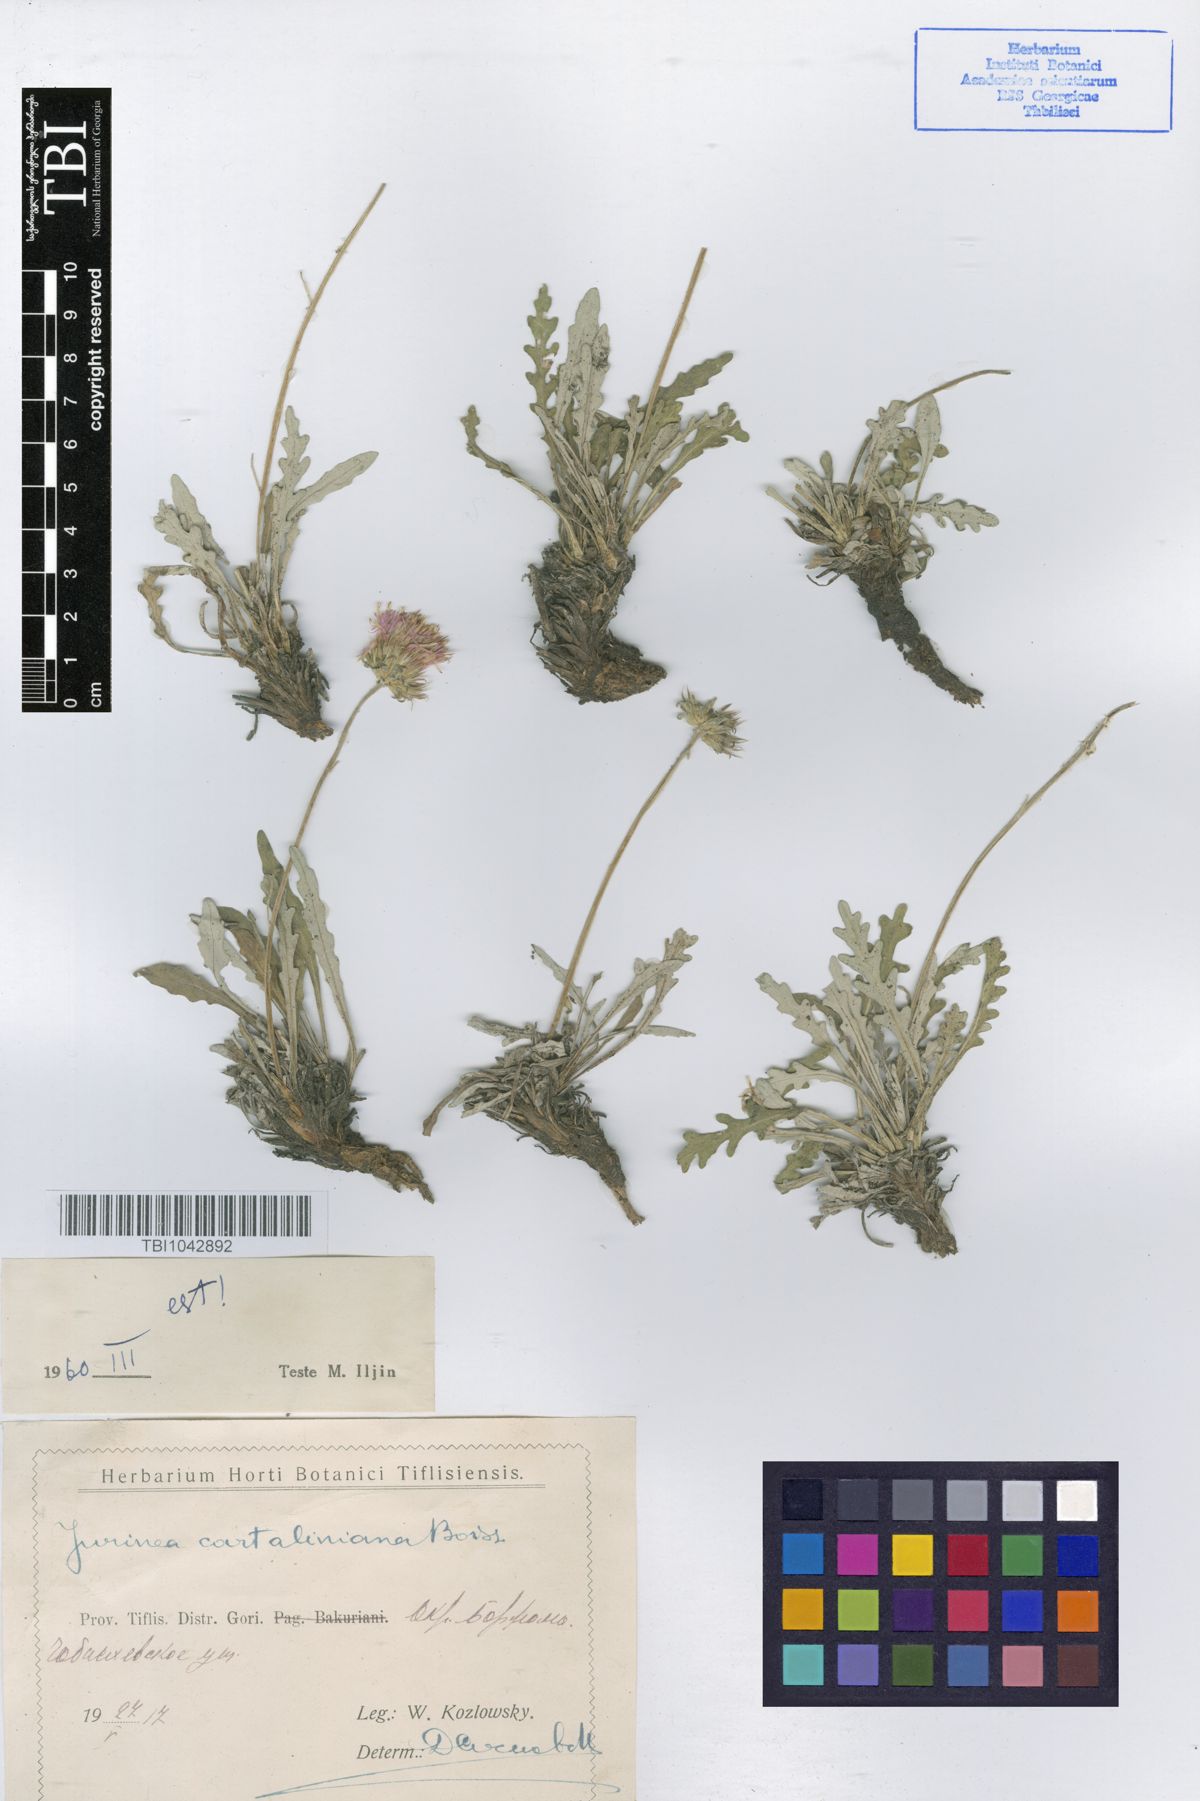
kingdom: Plantae
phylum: Tracheophyta
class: Magnoliopsida
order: Asterales
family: Asteraceae
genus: Jurinea
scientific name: Jurinea cartaliniana
